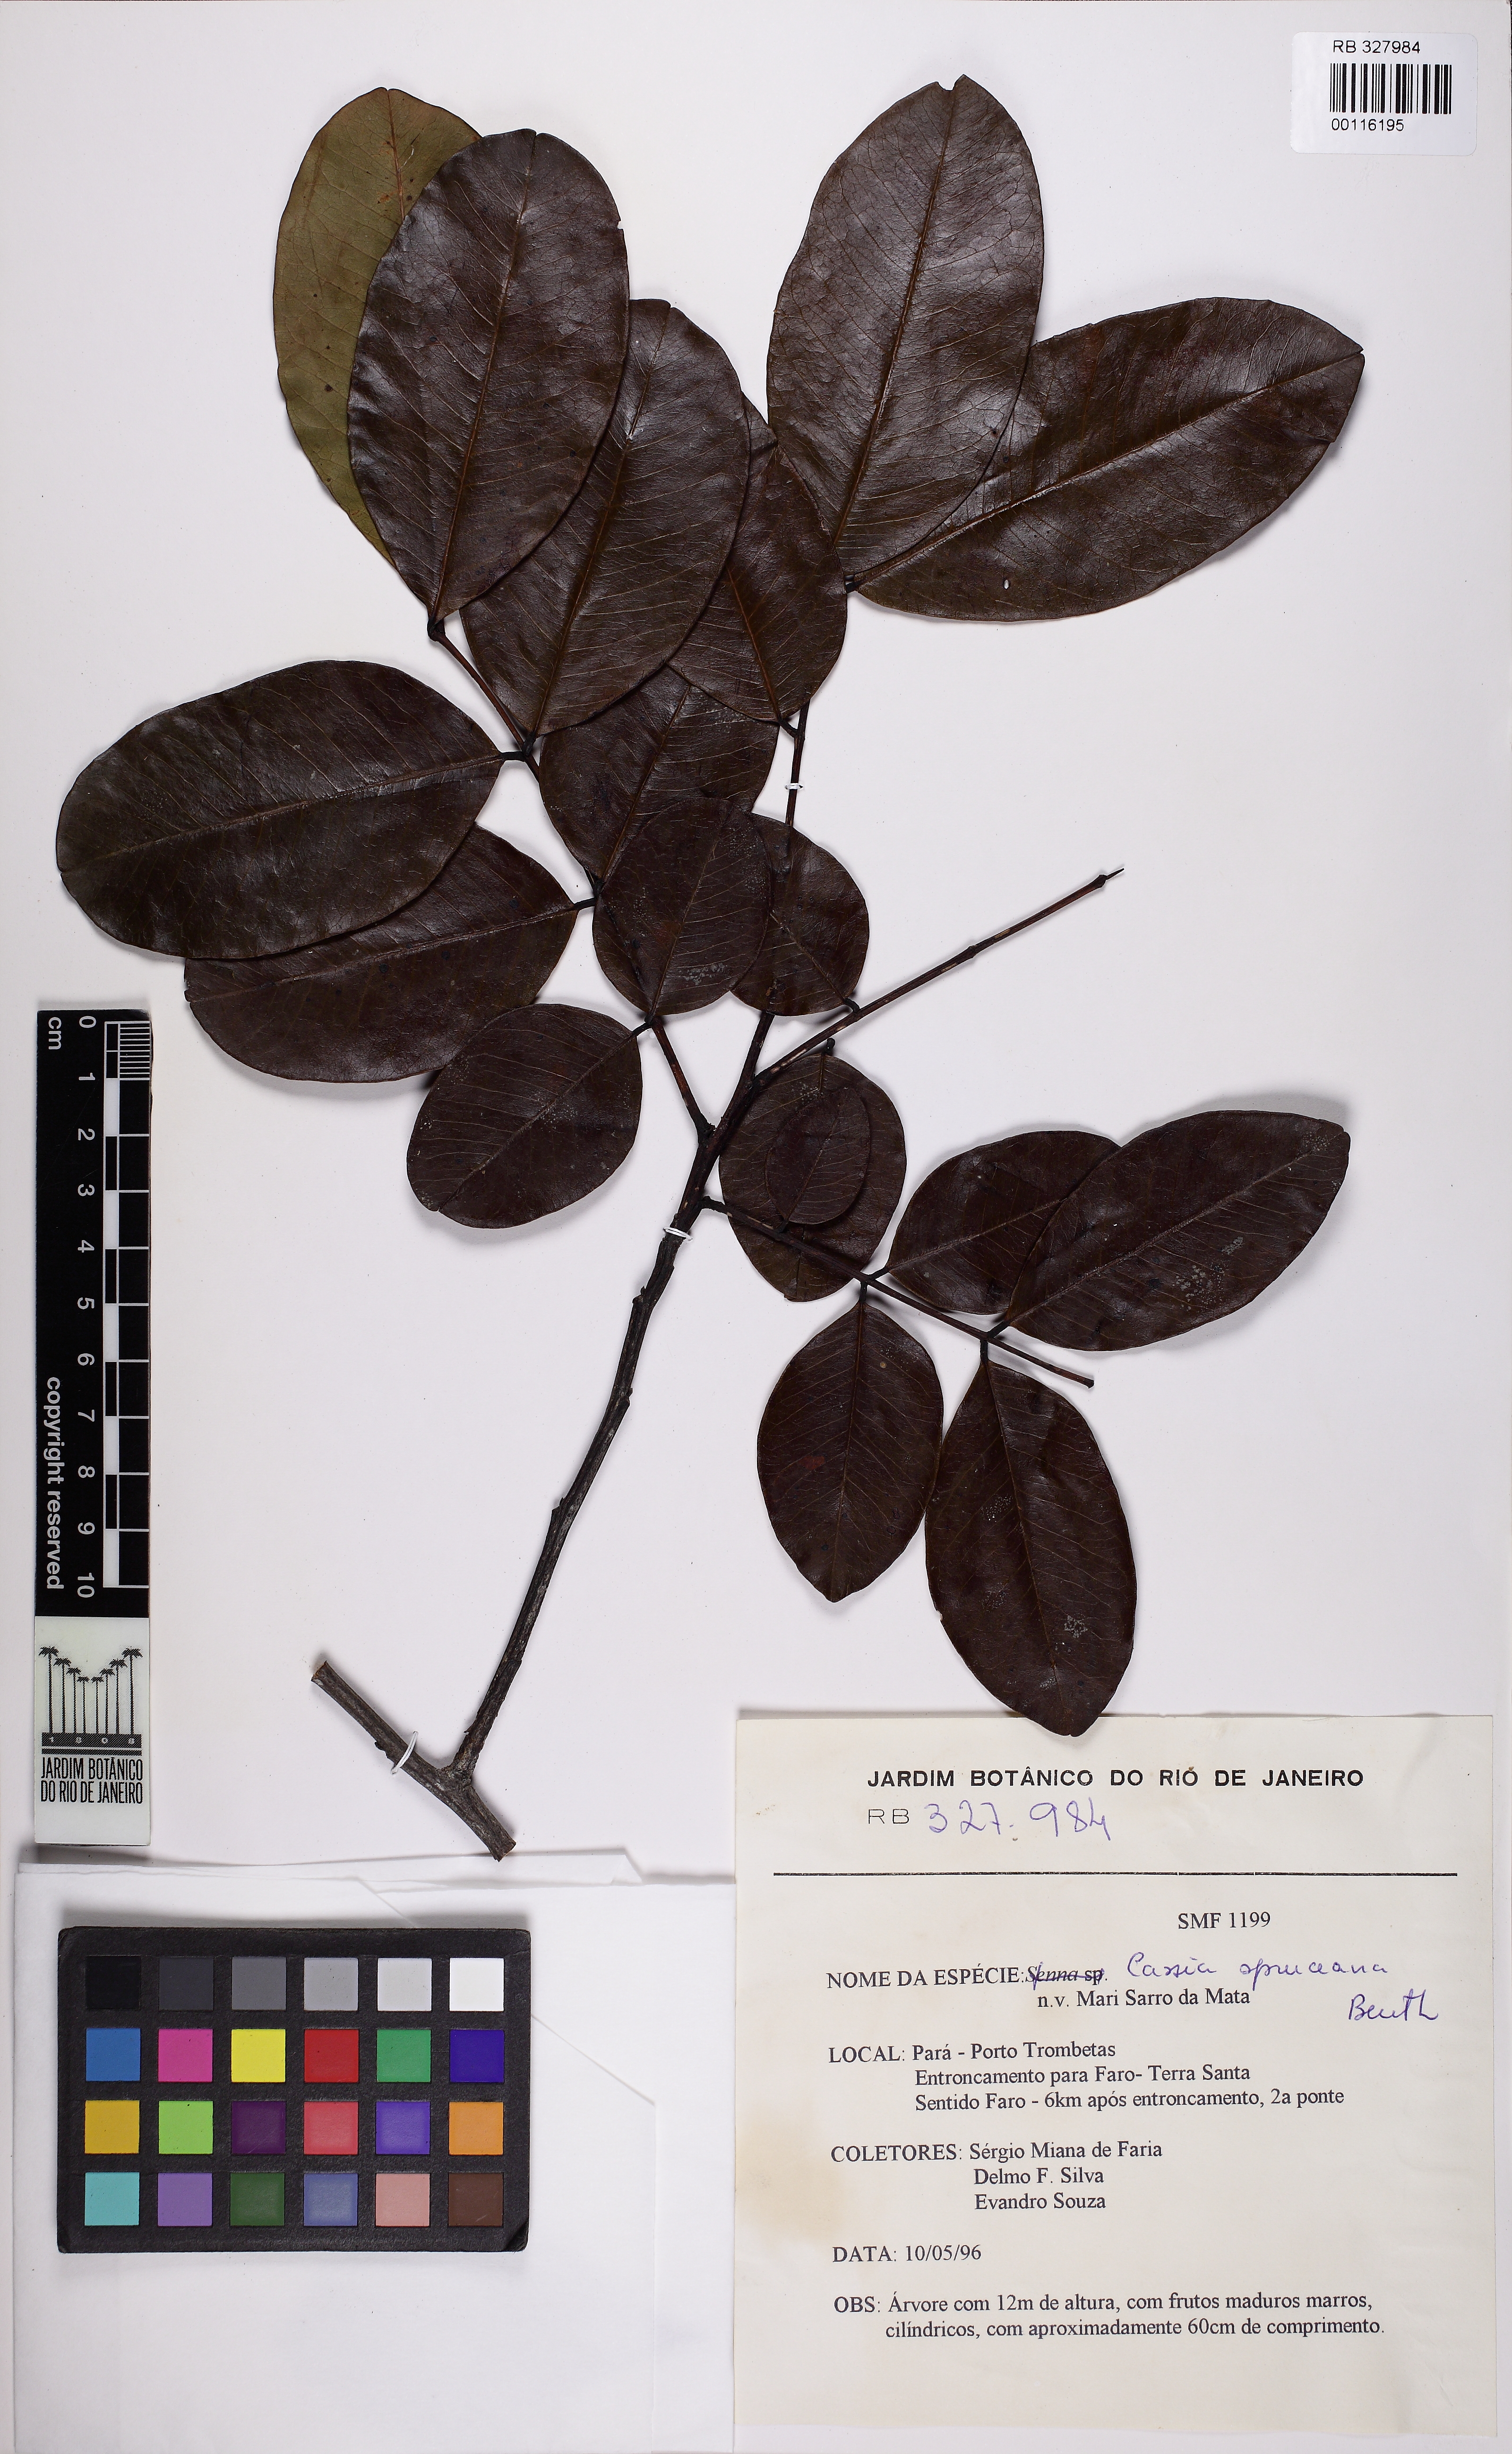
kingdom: Plantae
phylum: Tracheophyta
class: Magnoliopsida
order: Fabales
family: Fabaceae
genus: Cassia
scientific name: Cassia spruceana
